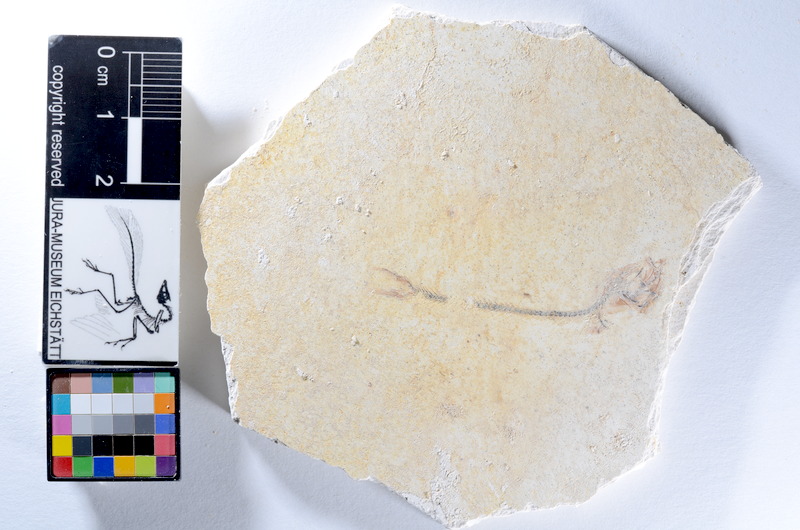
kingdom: Animalia
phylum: Chordata
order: Salmoniformes
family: Orthogonikleithridae
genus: Orthogonikleithrus
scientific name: Orthogonikleithrus hoelli
